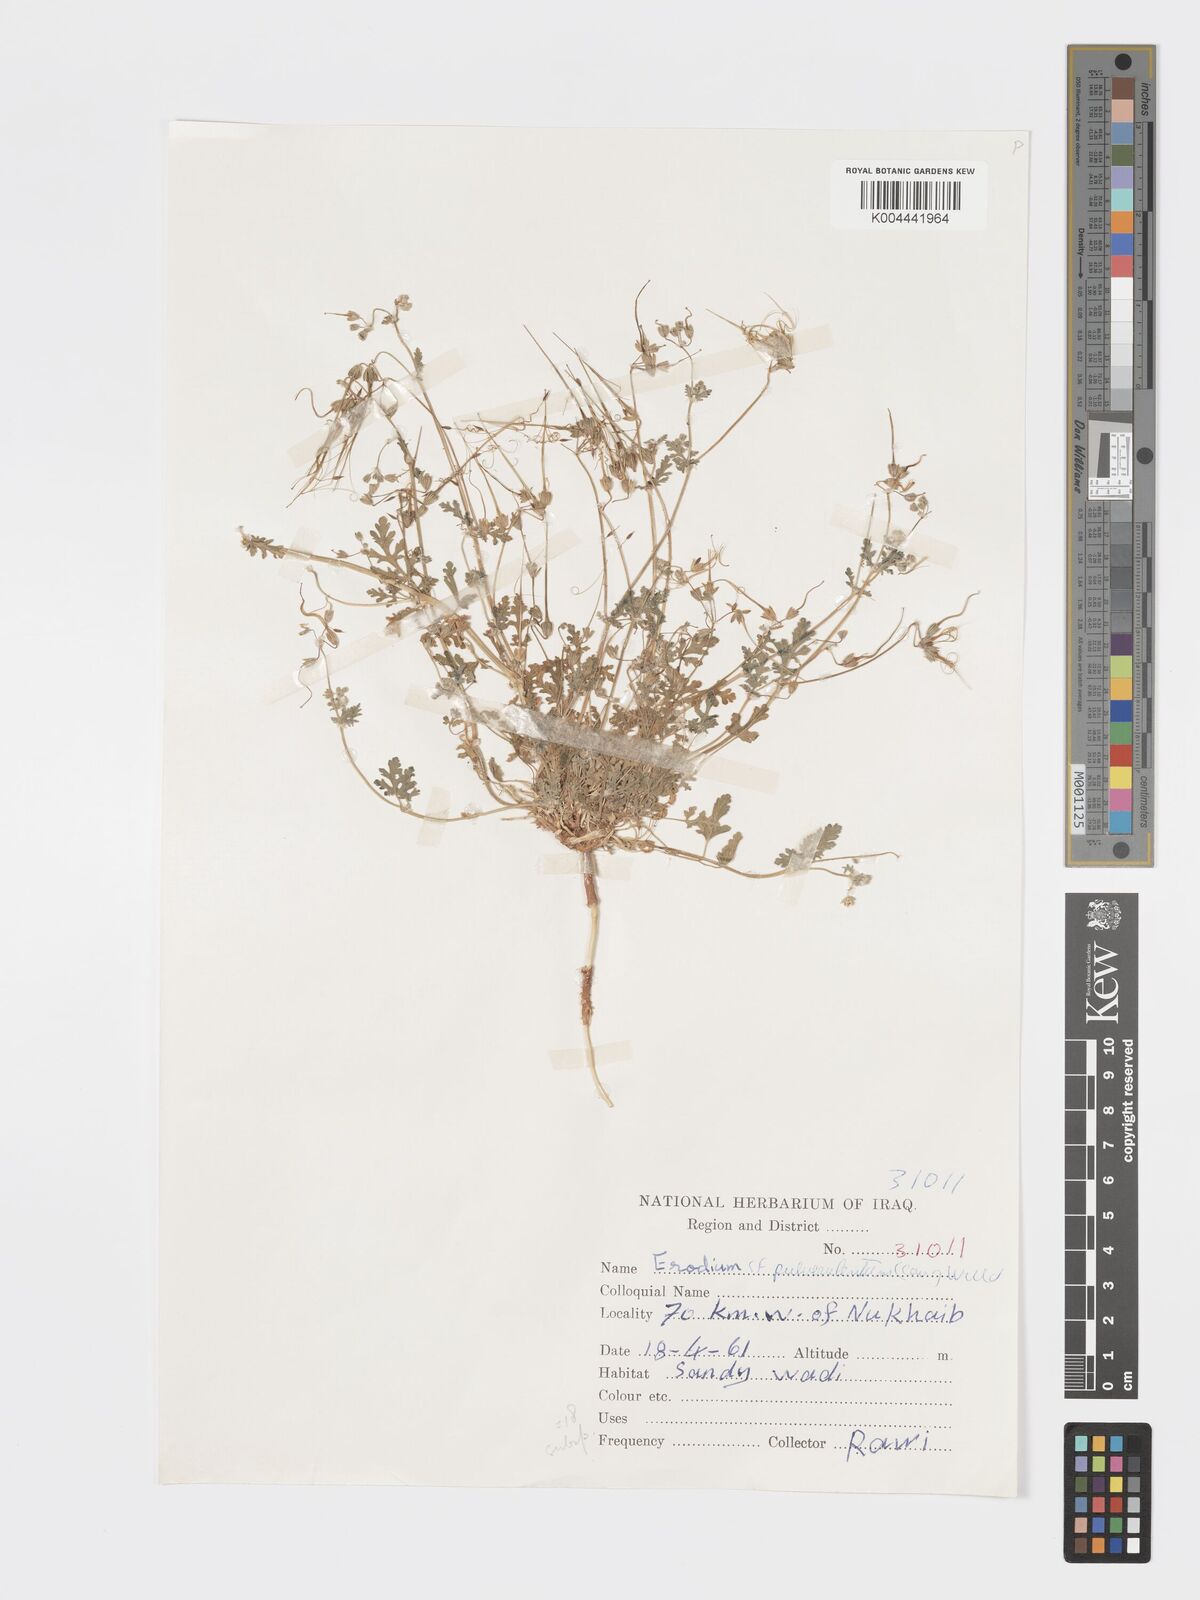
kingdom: Plantae
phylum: Tracheophyta
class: Magnoliopsida
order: Geraniales
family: Geraniaceae
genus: Erodium
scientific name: Erodium laciniatum
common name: Cutleaf stork's bill
